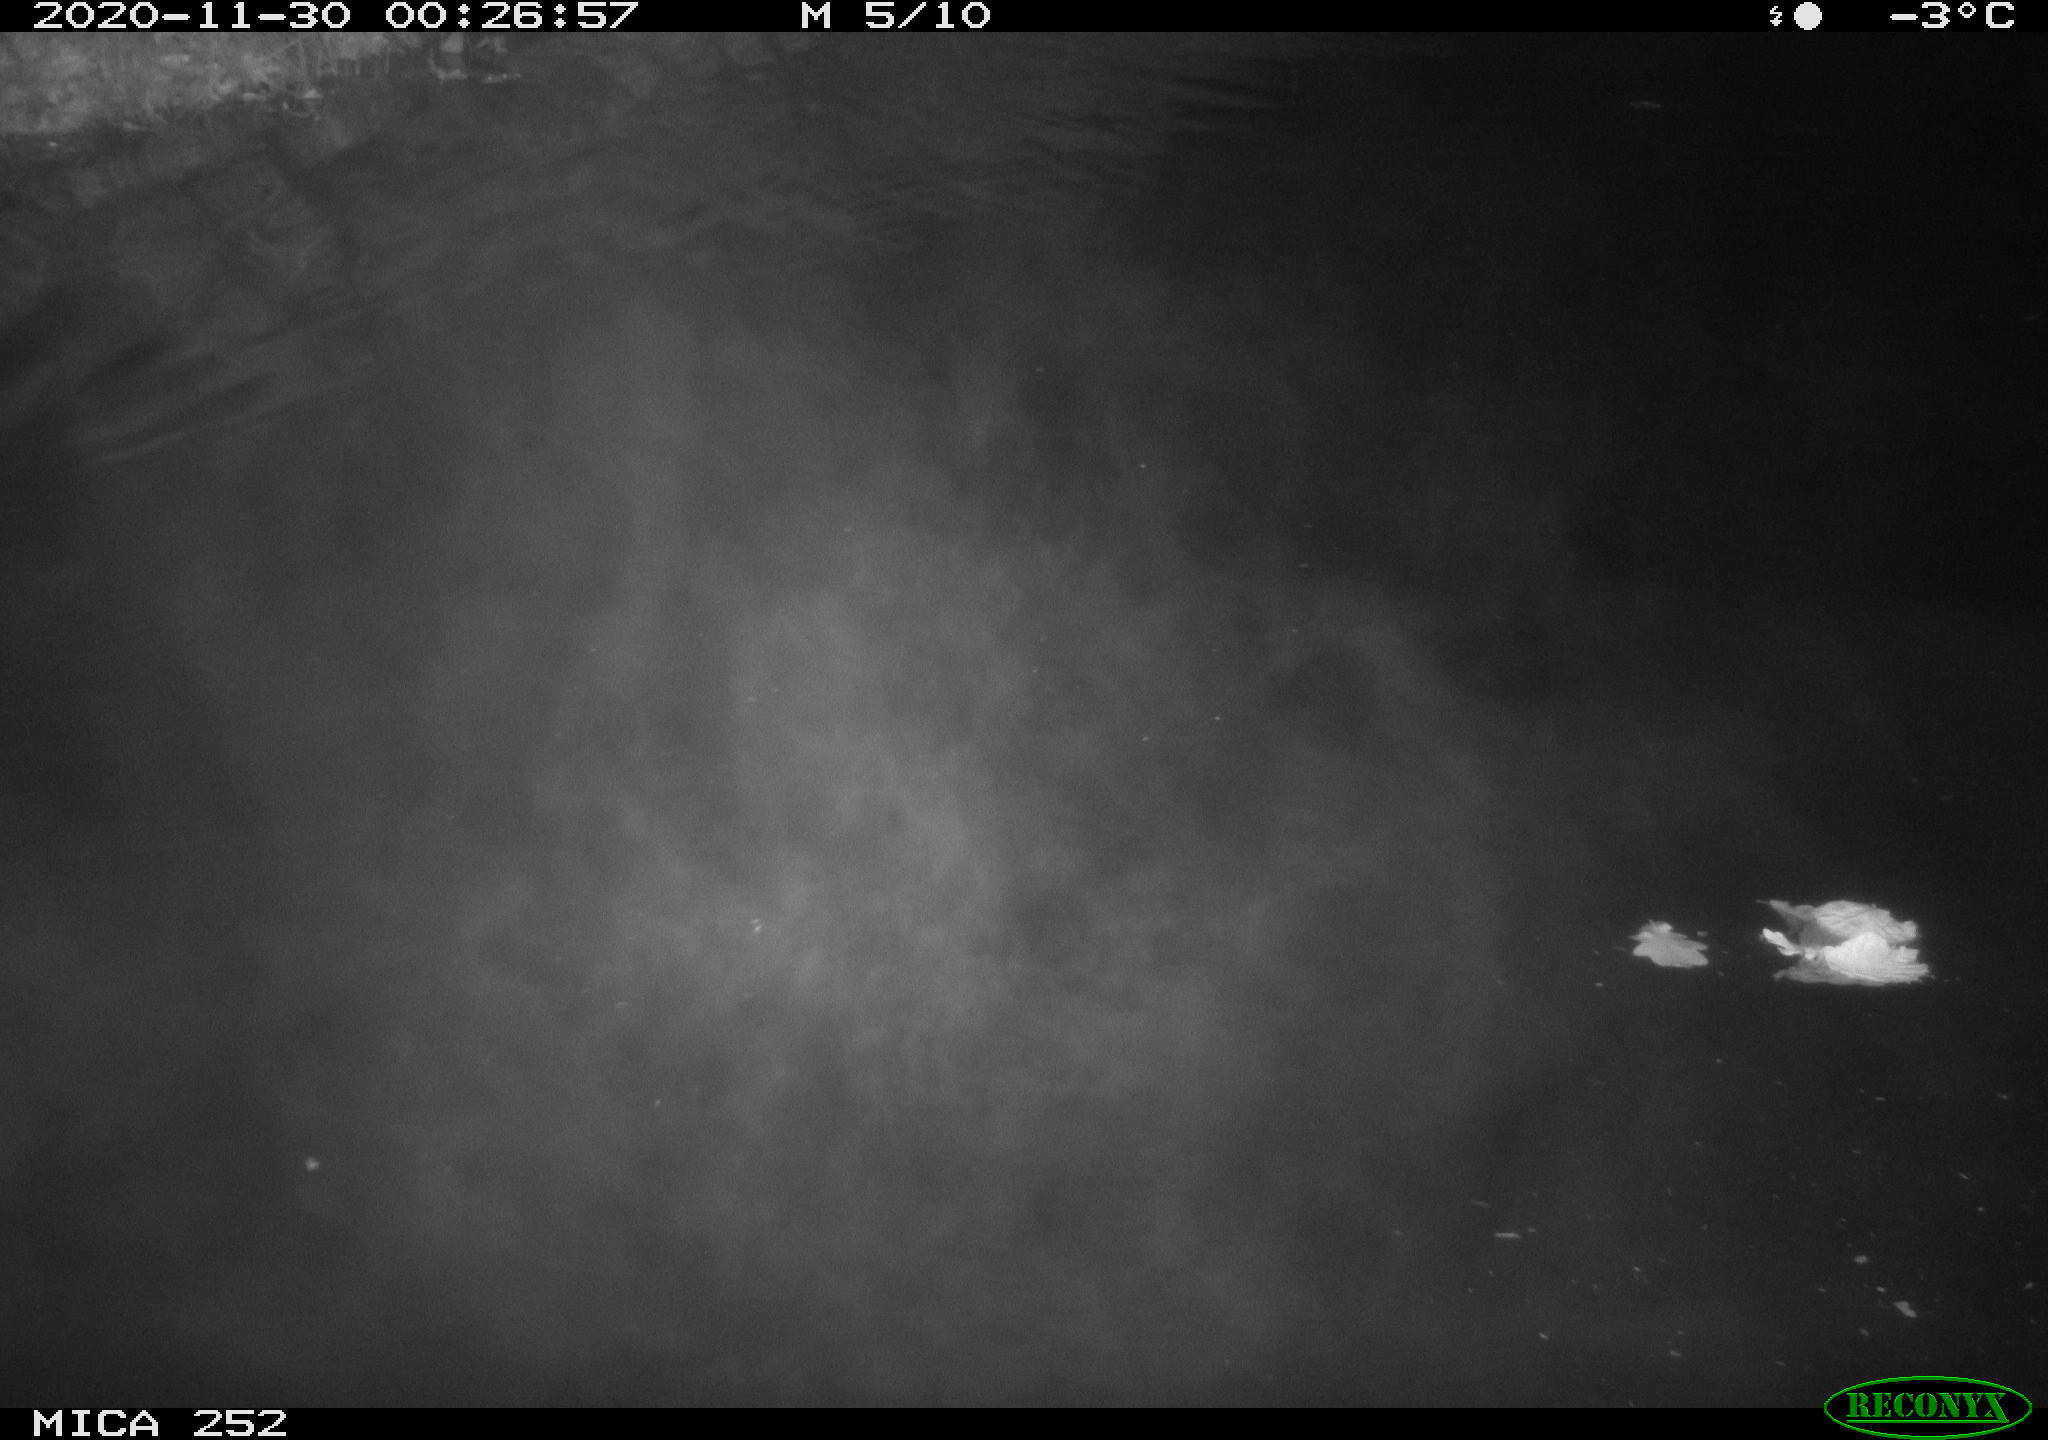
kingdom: Animalia
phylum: Chordata
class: Mammalia
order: Rodentia
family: Castoridae
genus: Castor
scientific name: Castor fiber
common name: Eurasian beaver
